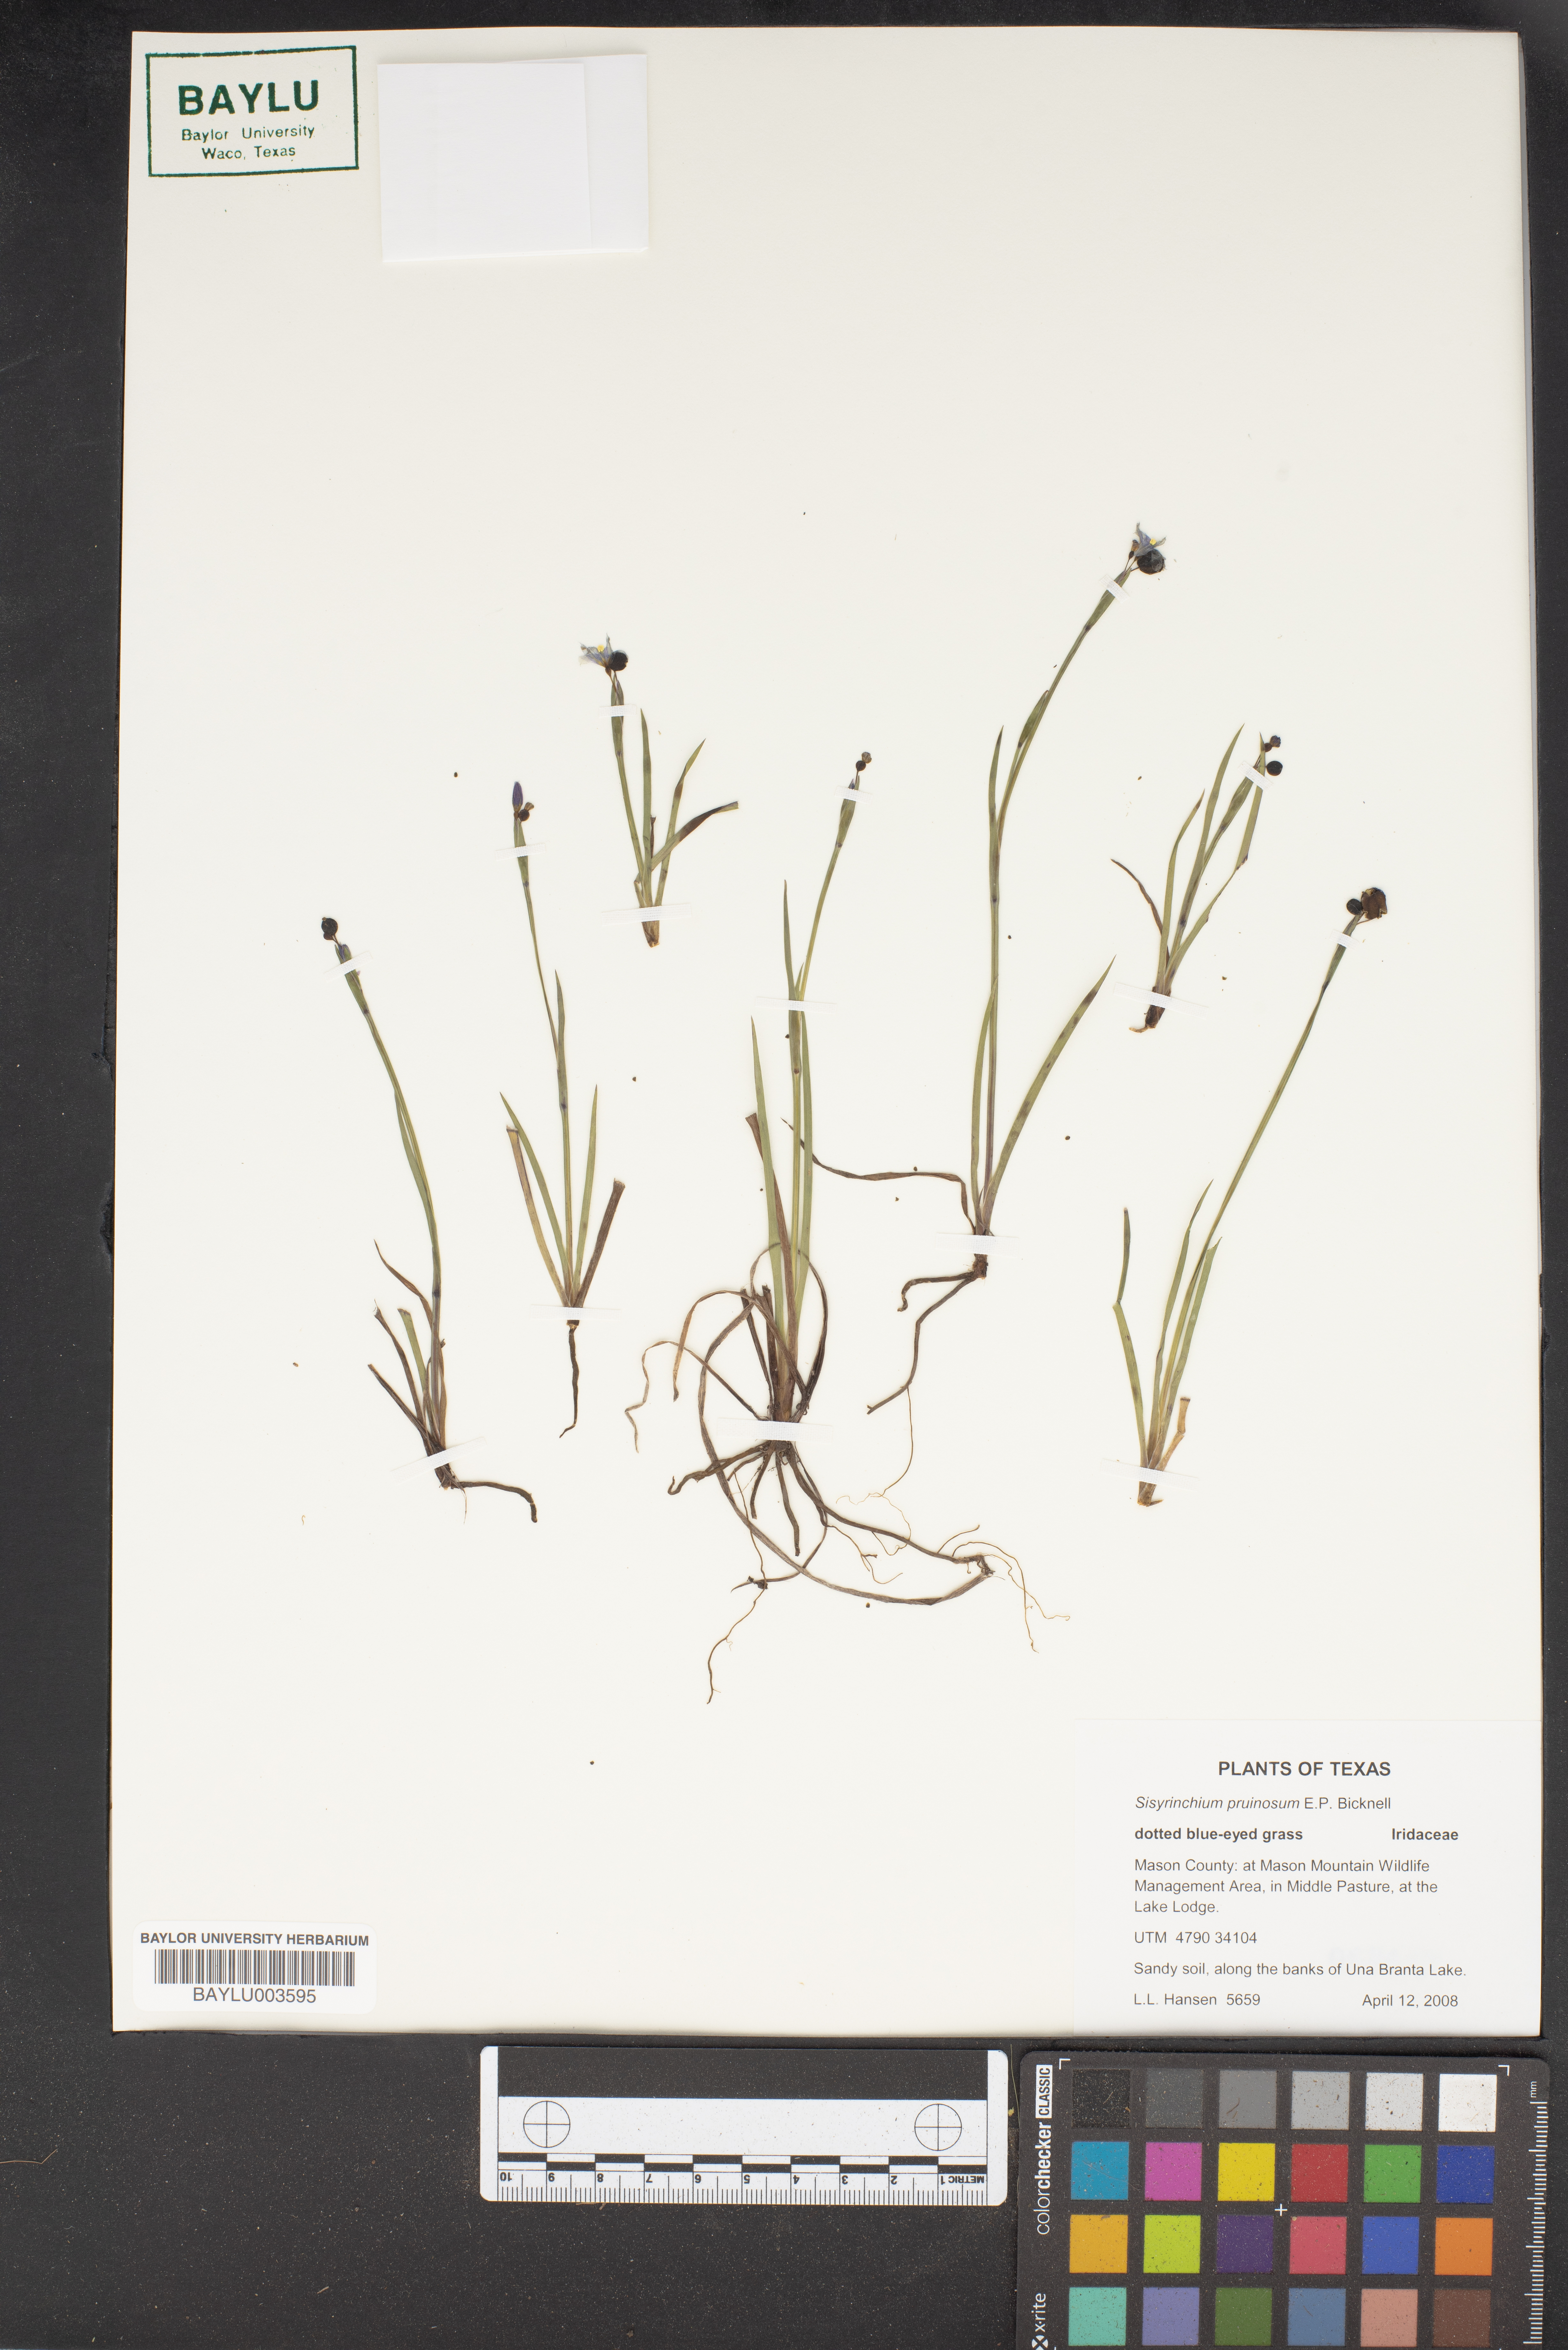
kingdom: Plantae
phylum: Tracheophyta
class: Liliopsida
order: Asparagales
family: Iridaceae
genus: Sisyrinchium
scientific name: Sisyrinchium pruinosum
